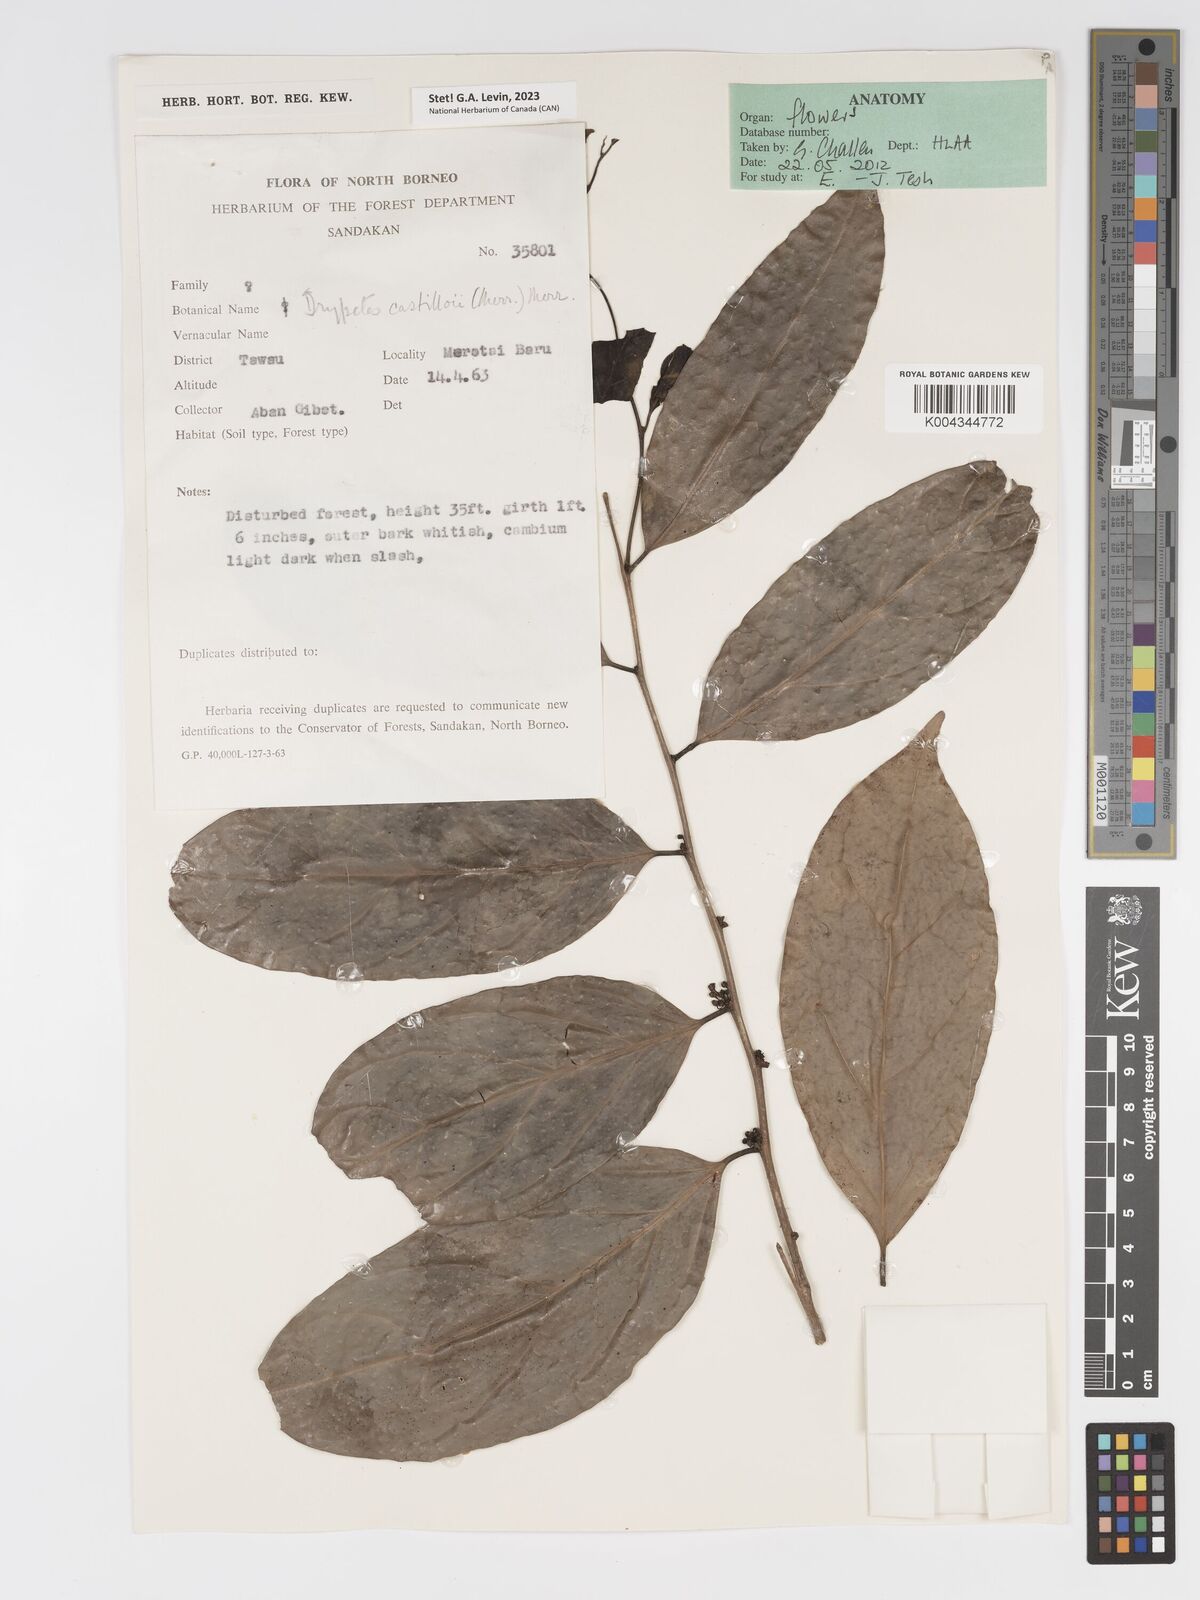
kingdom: Plantae
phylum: Tracheophyta
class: Magnoliopsida
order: Malpighiales
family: Putranjivaceae
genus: Drypetes
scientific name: Drypetes castilloi
